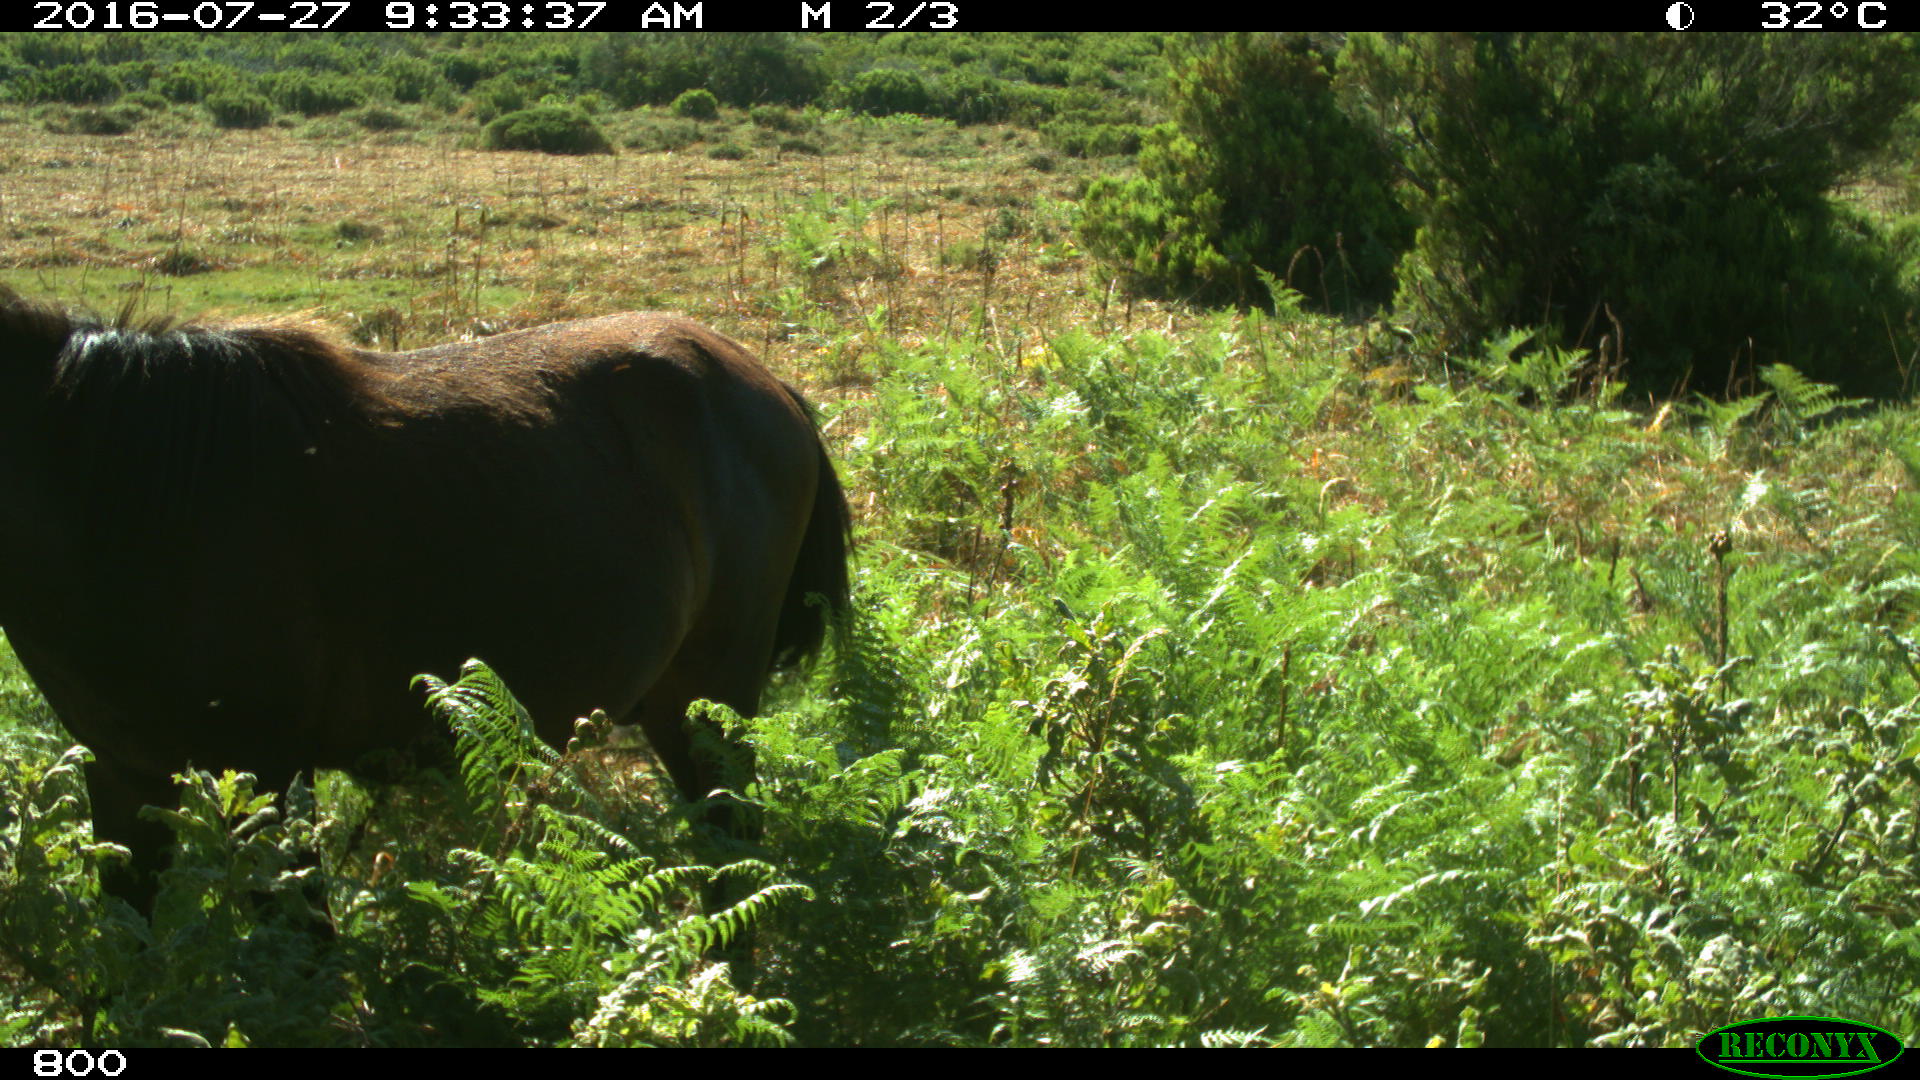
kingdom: Animalia
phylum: Chordata
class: Mammalia
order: Perissodactyla
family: Equidae
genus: Equus
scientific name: Equus caballus
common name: Horse
